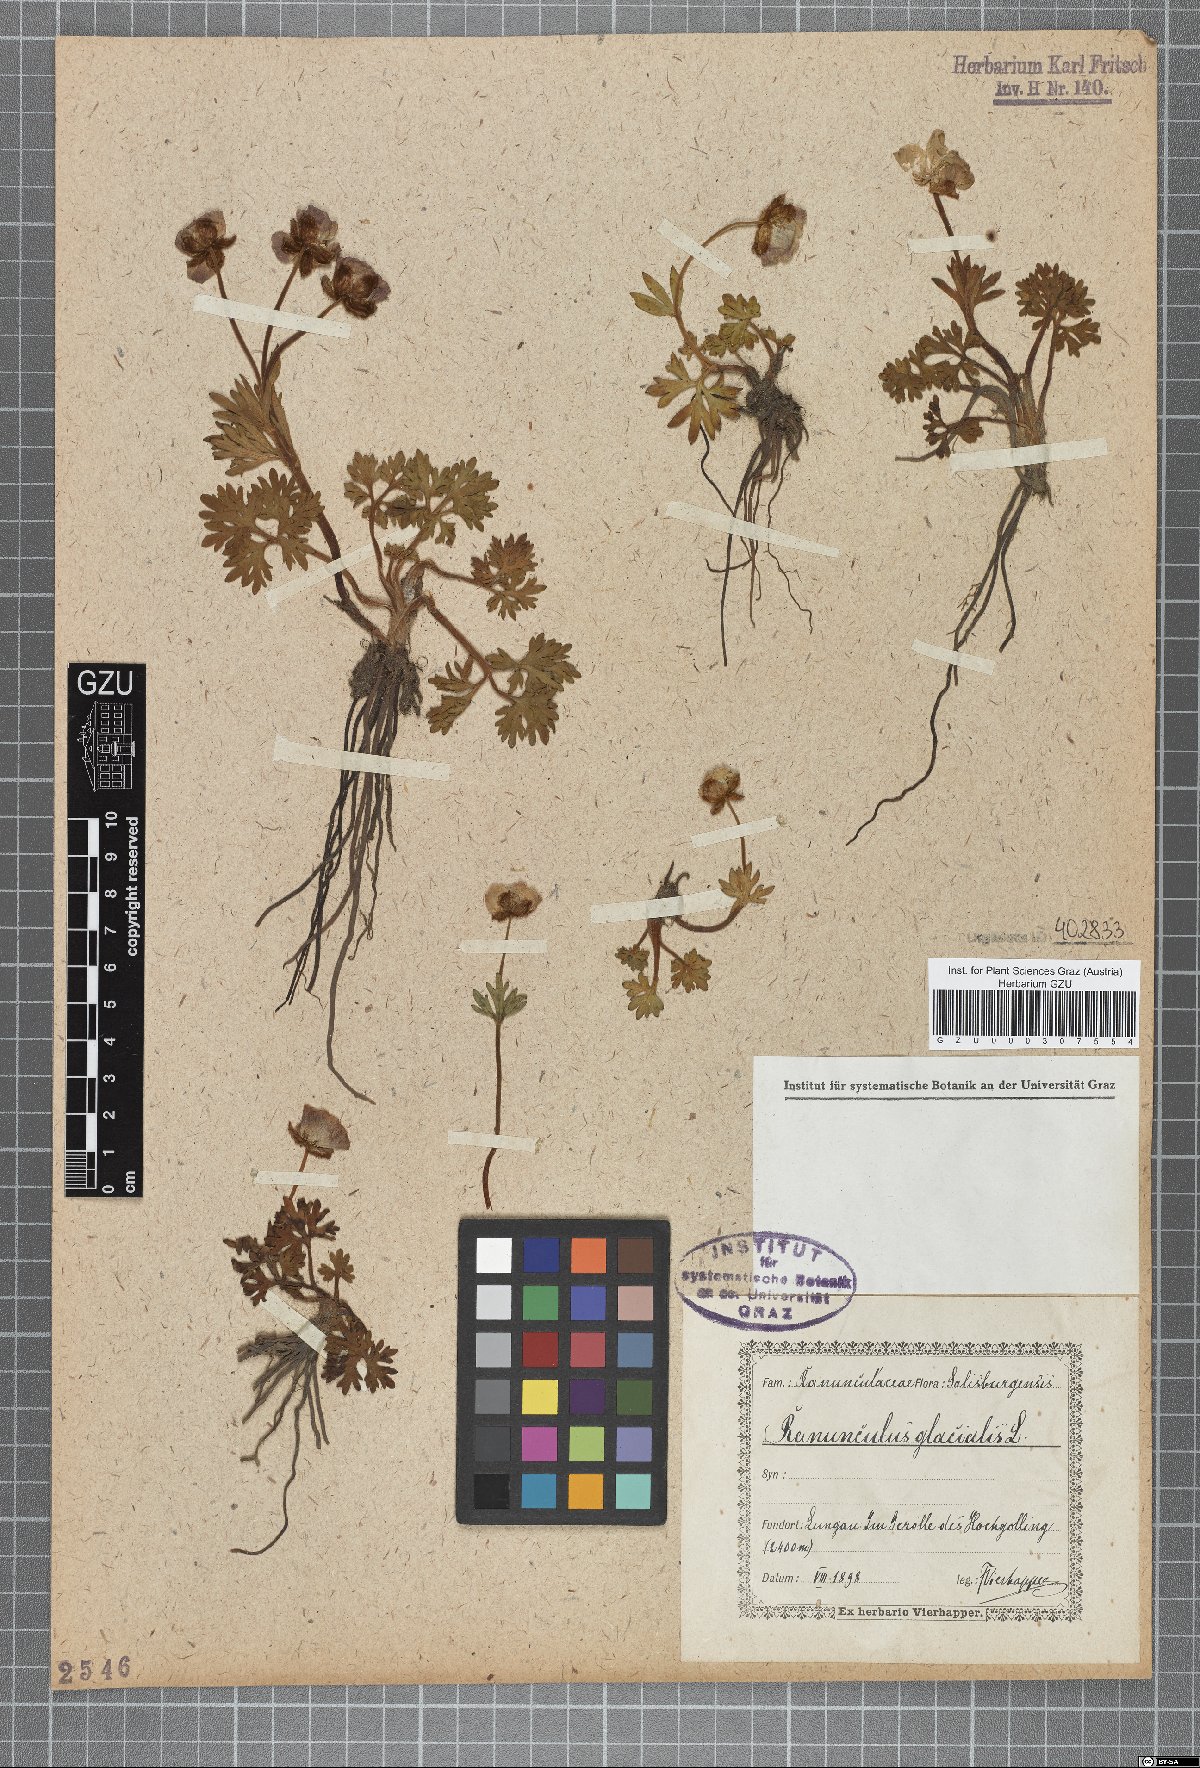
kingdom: Plantae
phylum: Tracheophyta
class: Magnoliopsida
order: Ranunculales
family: Ranunculaceae
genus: Ranunculus
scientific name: Ranunculus glacialis
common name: Glacier buttercup
